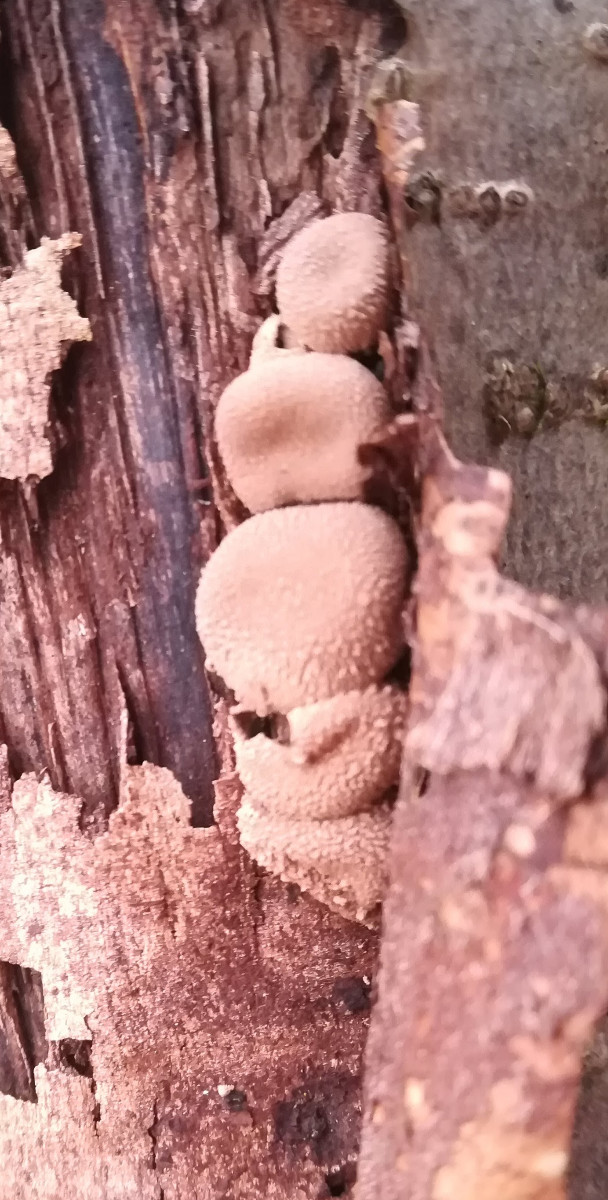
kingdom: Fungi
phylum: Ascomycota
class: Leotiomycetes
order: Helotiales
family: Cenangiaceae
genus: Encoelia
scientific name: Encoelia furfuracea
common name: hassel-læderskive
